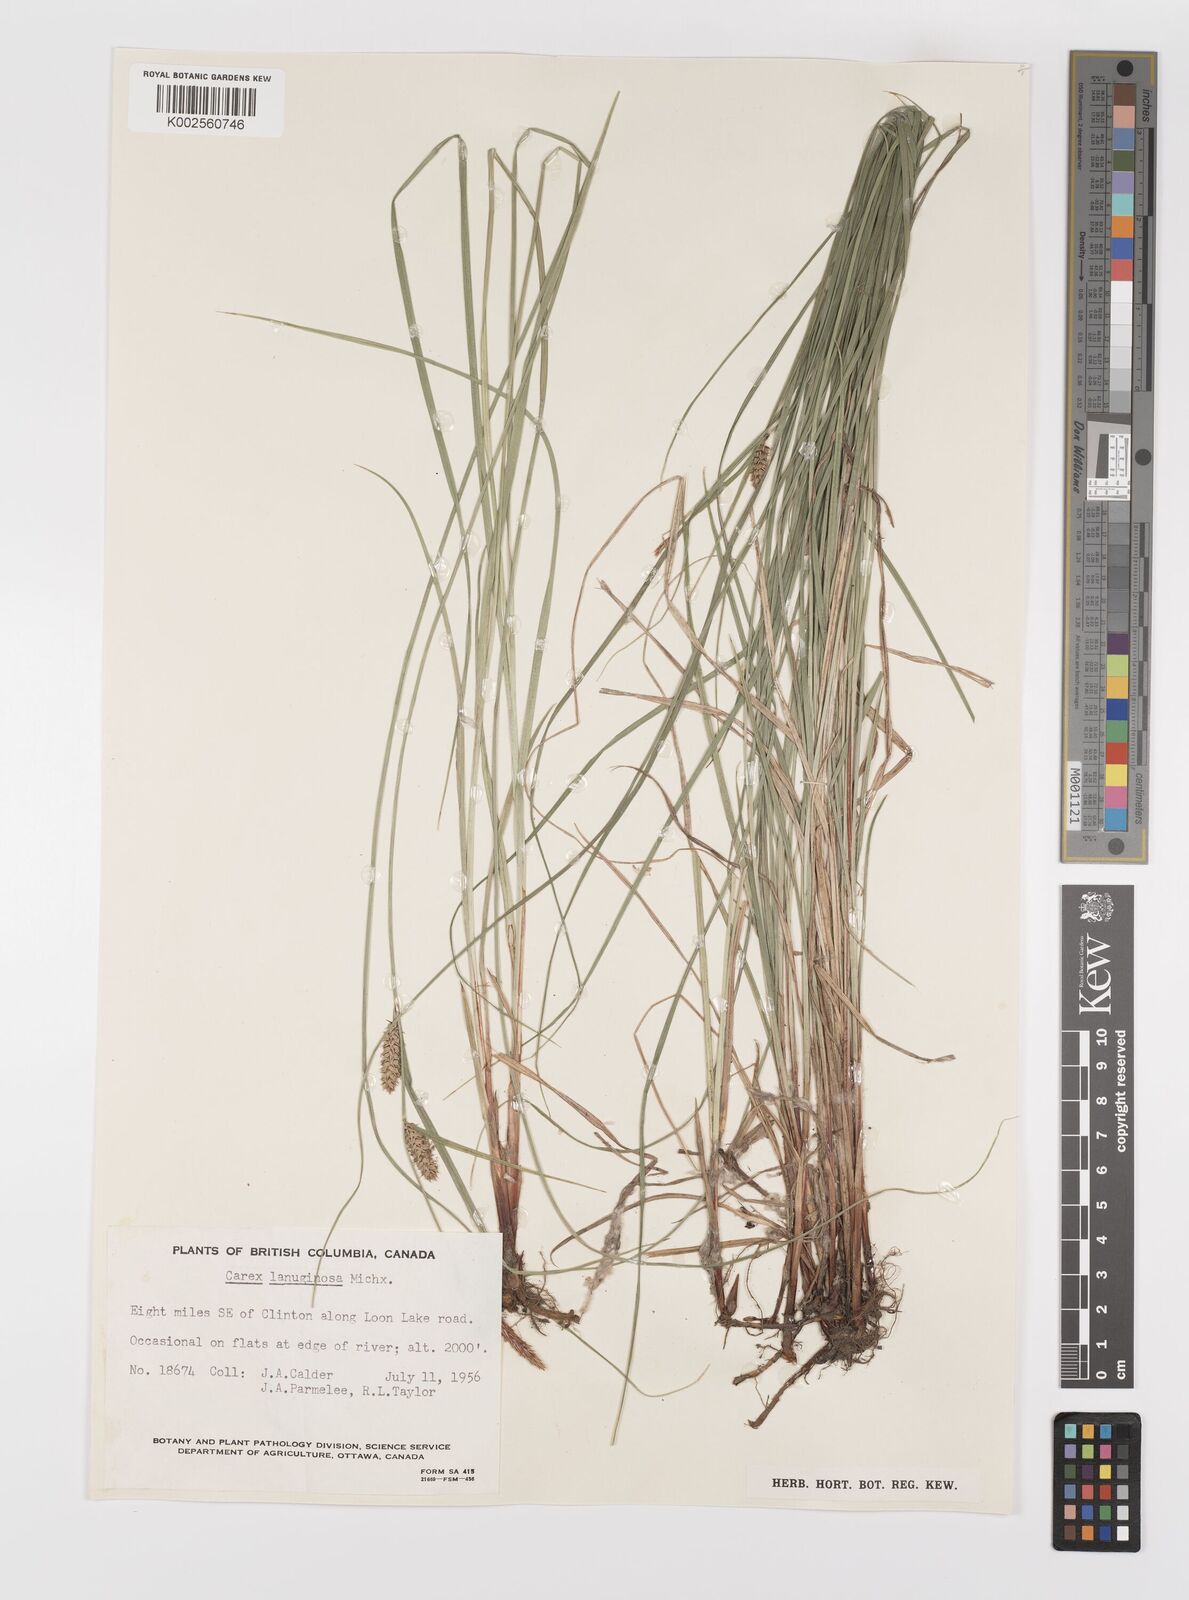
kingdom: Plantae
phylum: Tracheophyta
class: Liliopsida
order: Poales
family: Cyperaceae
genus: Carex
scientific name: Carex lasiocarpa
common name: Slender sedge
